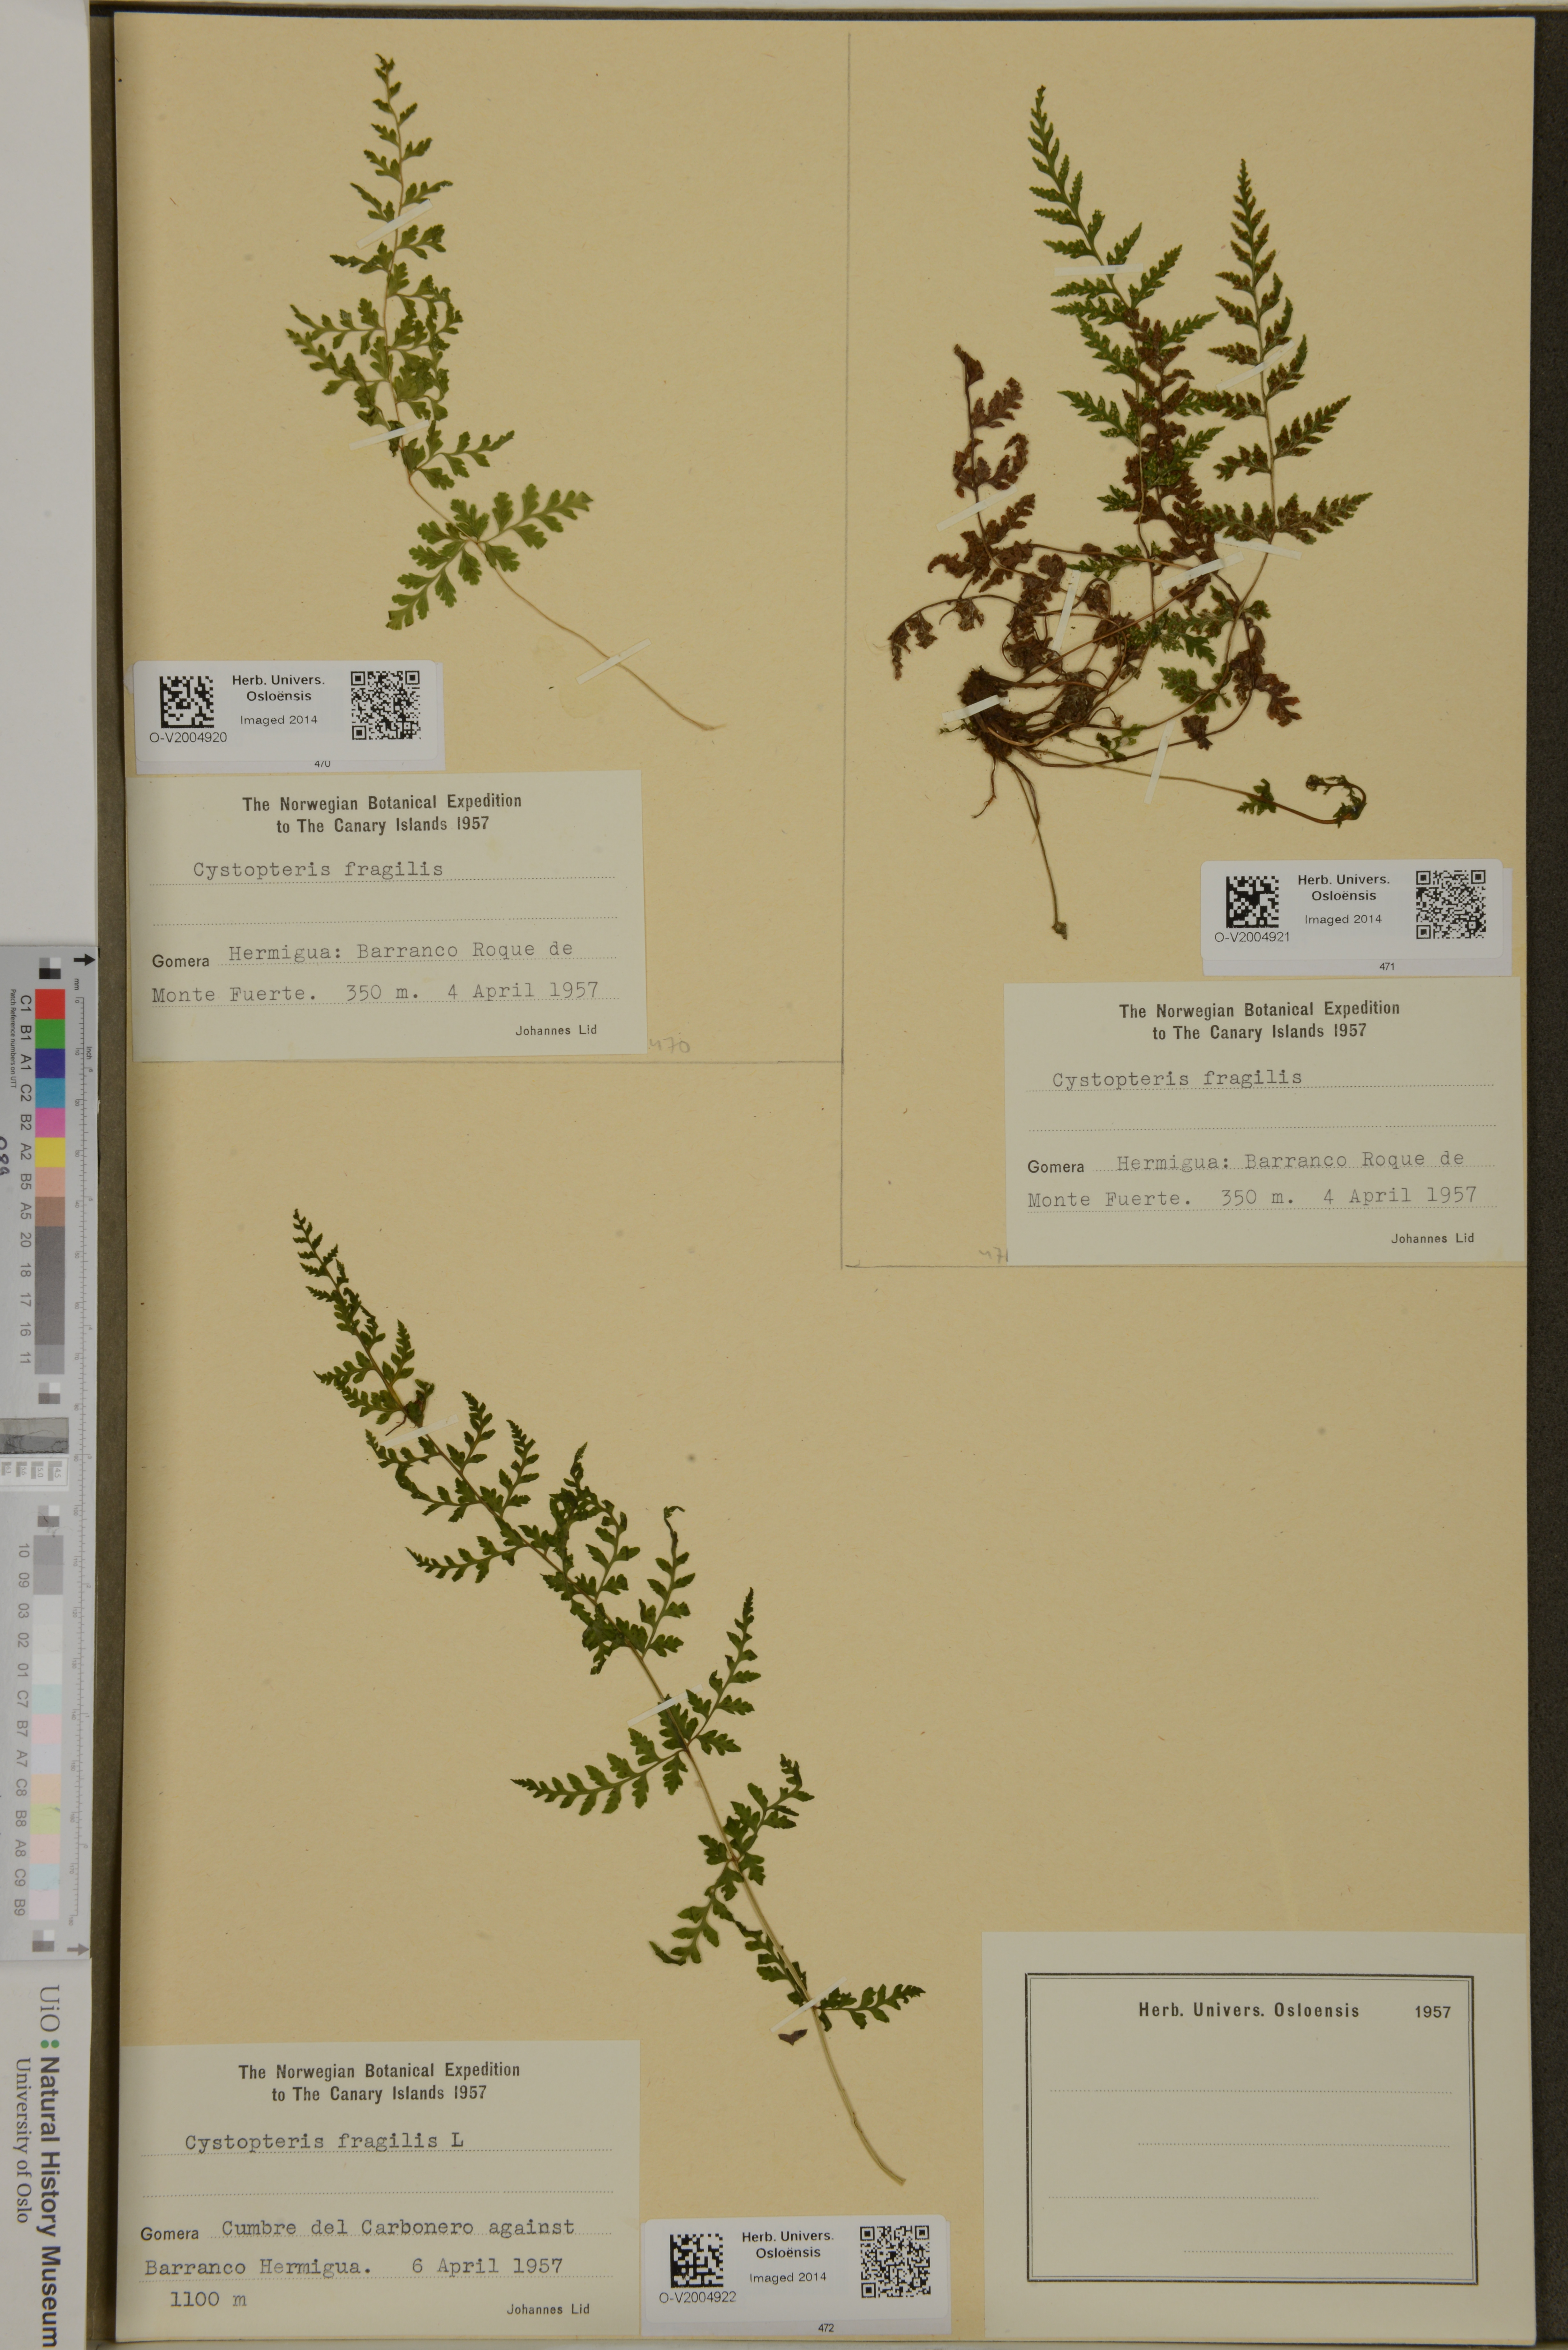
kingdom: Plantae
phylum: Tracheophyta
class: Polypodiopsida
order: Polypodiales
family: Cystopteridaceae
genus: Cystopteris
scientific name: Cystopteris fragilis
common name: Brittle bladder fern
